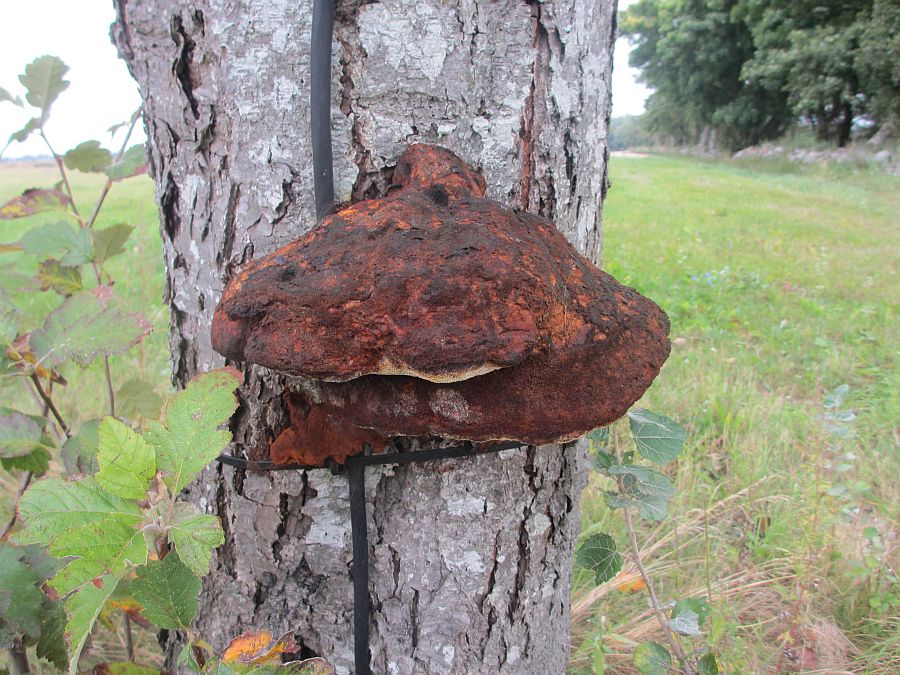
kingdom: Fungi
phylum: Basidiomycota
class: Agaricomycetes
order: Hymenochaetales
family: Hymenochaetaceae
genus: Inonotus
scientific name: Inonotus hispidus
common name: børstehåret spejlporesvamp
